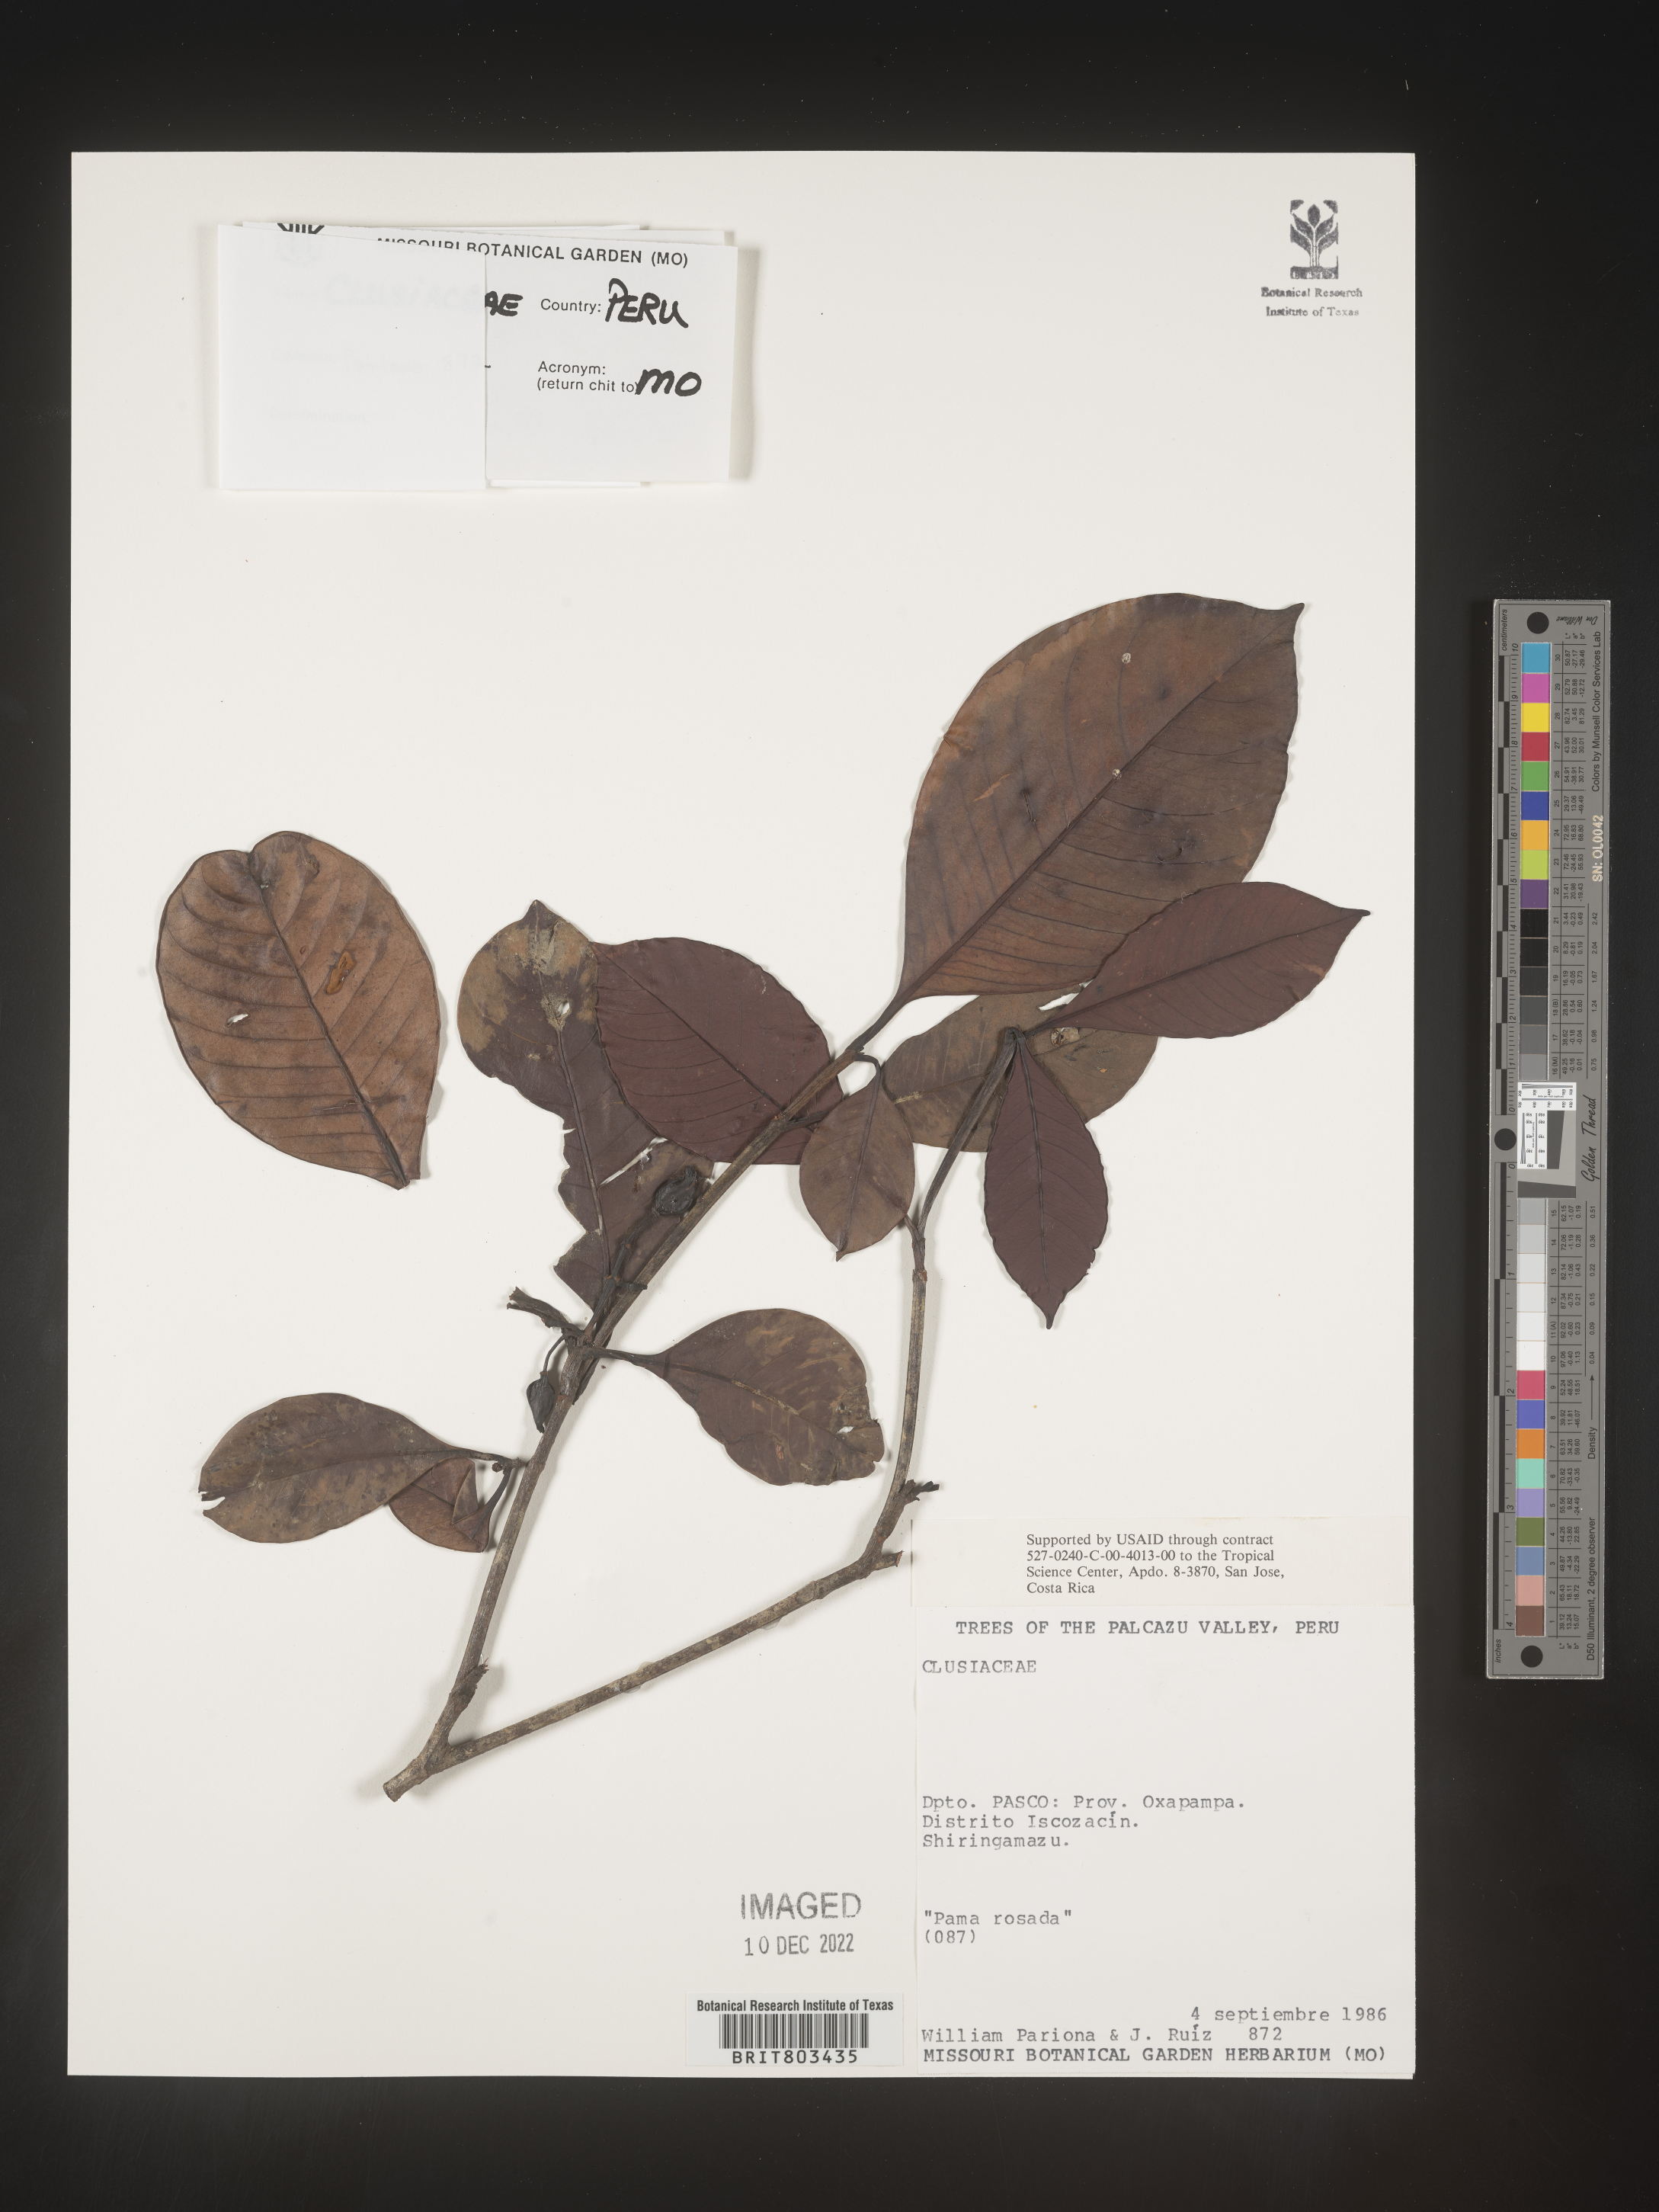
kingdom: Plantae
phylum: Tracheophyta
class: Magnoliopsida
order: Malpighiales
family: Clusiaceae
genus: Tovomita
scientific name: Tovomita
